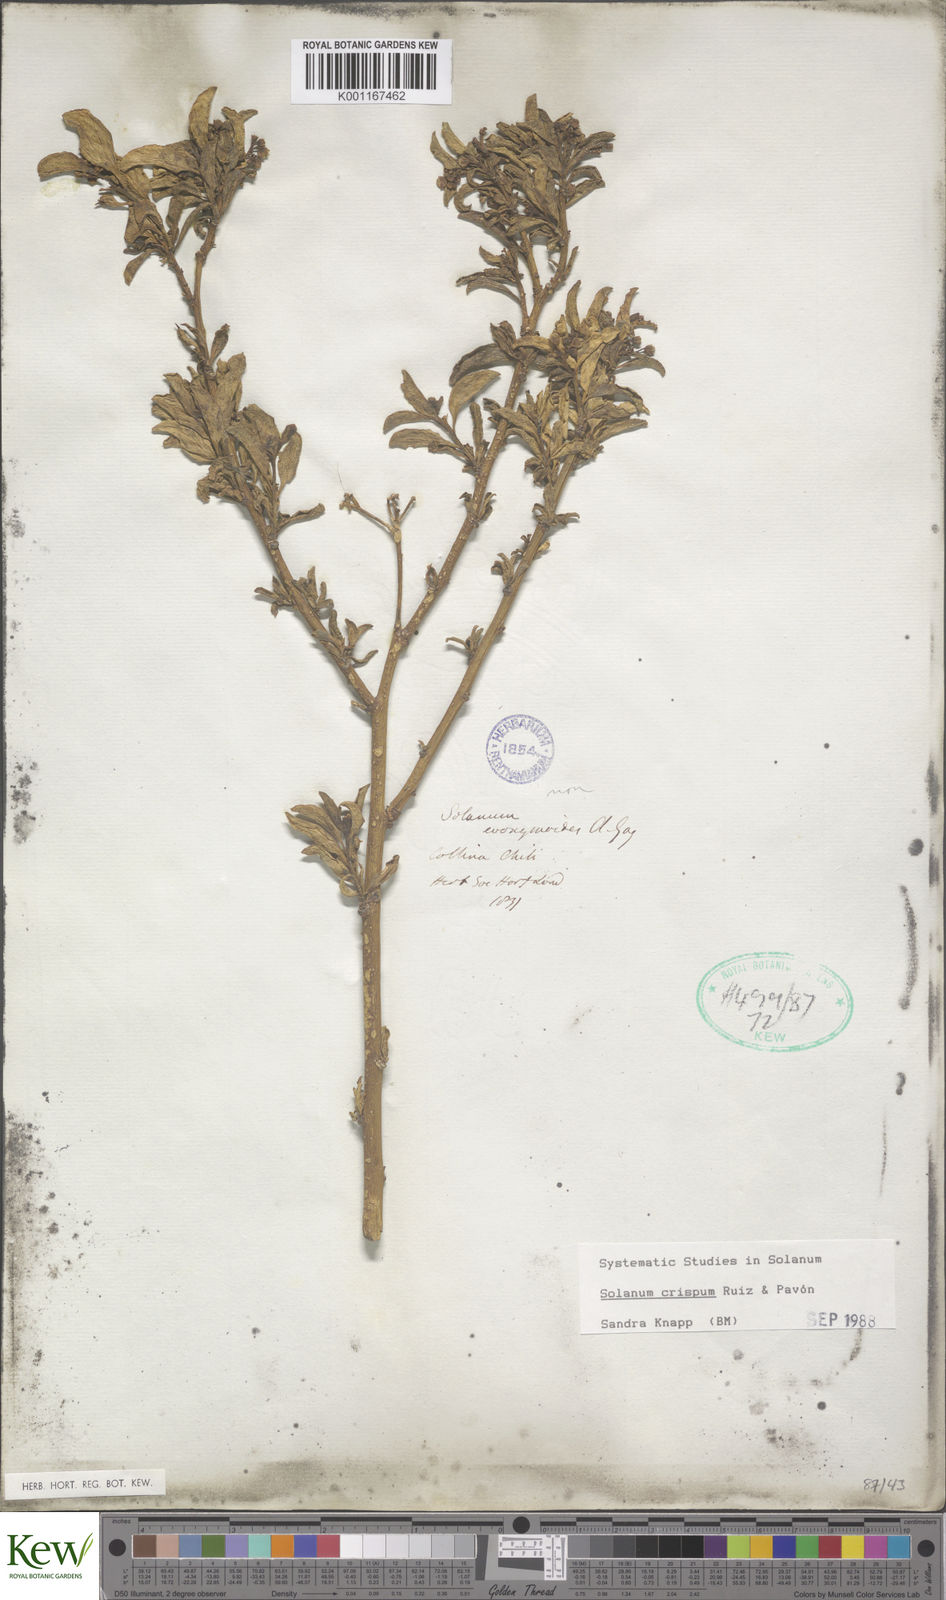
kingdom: Plantae
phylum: Tracheophyta
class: Magnoliopsida
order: Solanales
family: Solanaceae
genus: Solanum
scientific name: Solanum crispum
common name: Chilean nightshade
